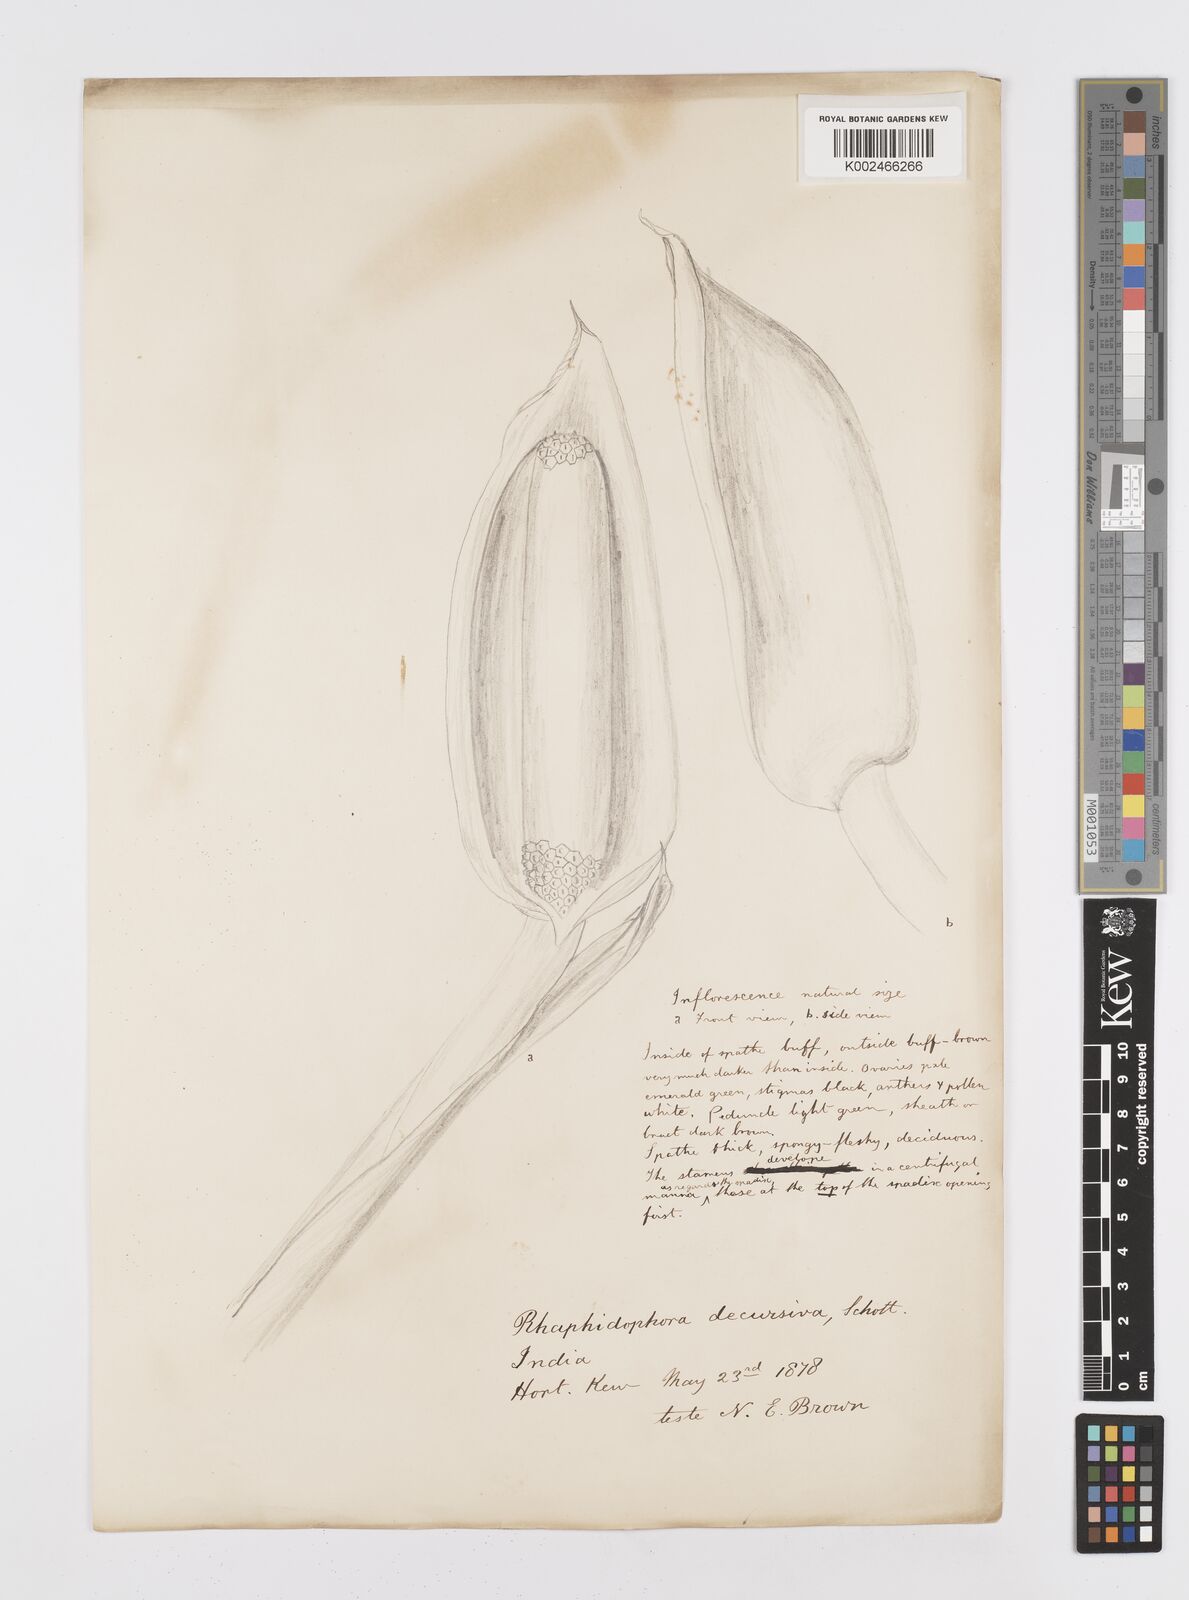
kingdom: Plantae
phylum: Tracheophyta
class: Liliopsida
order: Alismatales
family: Araceae
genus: Rhaphidophora
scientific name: Rhaphidophora decursiva
